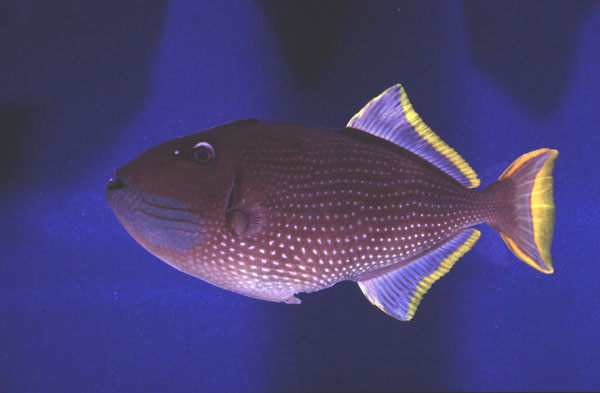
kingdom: Animalia
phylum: Chordata
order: Tetraodontiformes
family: Balistidae
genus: Xanthichthys
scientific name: Xanthichthys auromarginatus
